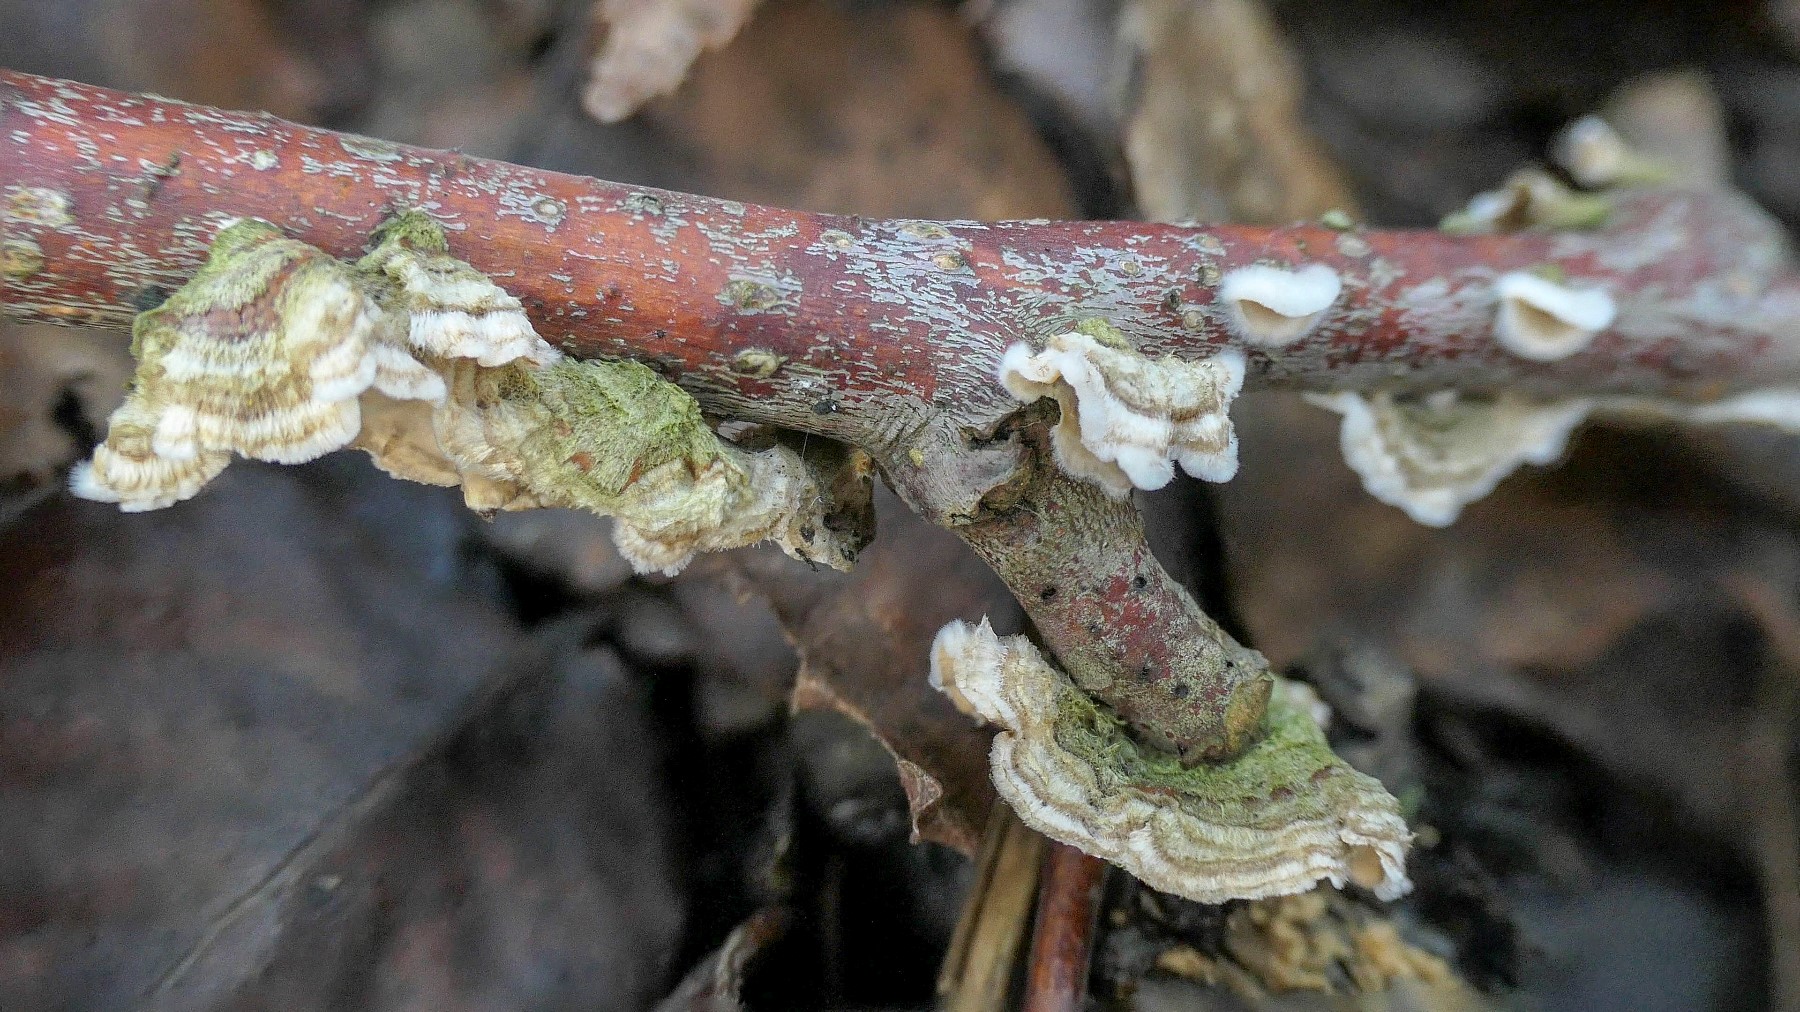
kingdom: Fungi
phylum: Basidiomycota
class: Agaricomycetes
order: Russulales
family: Stereaceae
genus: Stereum
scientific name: Stereum complicatum
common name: liden lædersvamp
